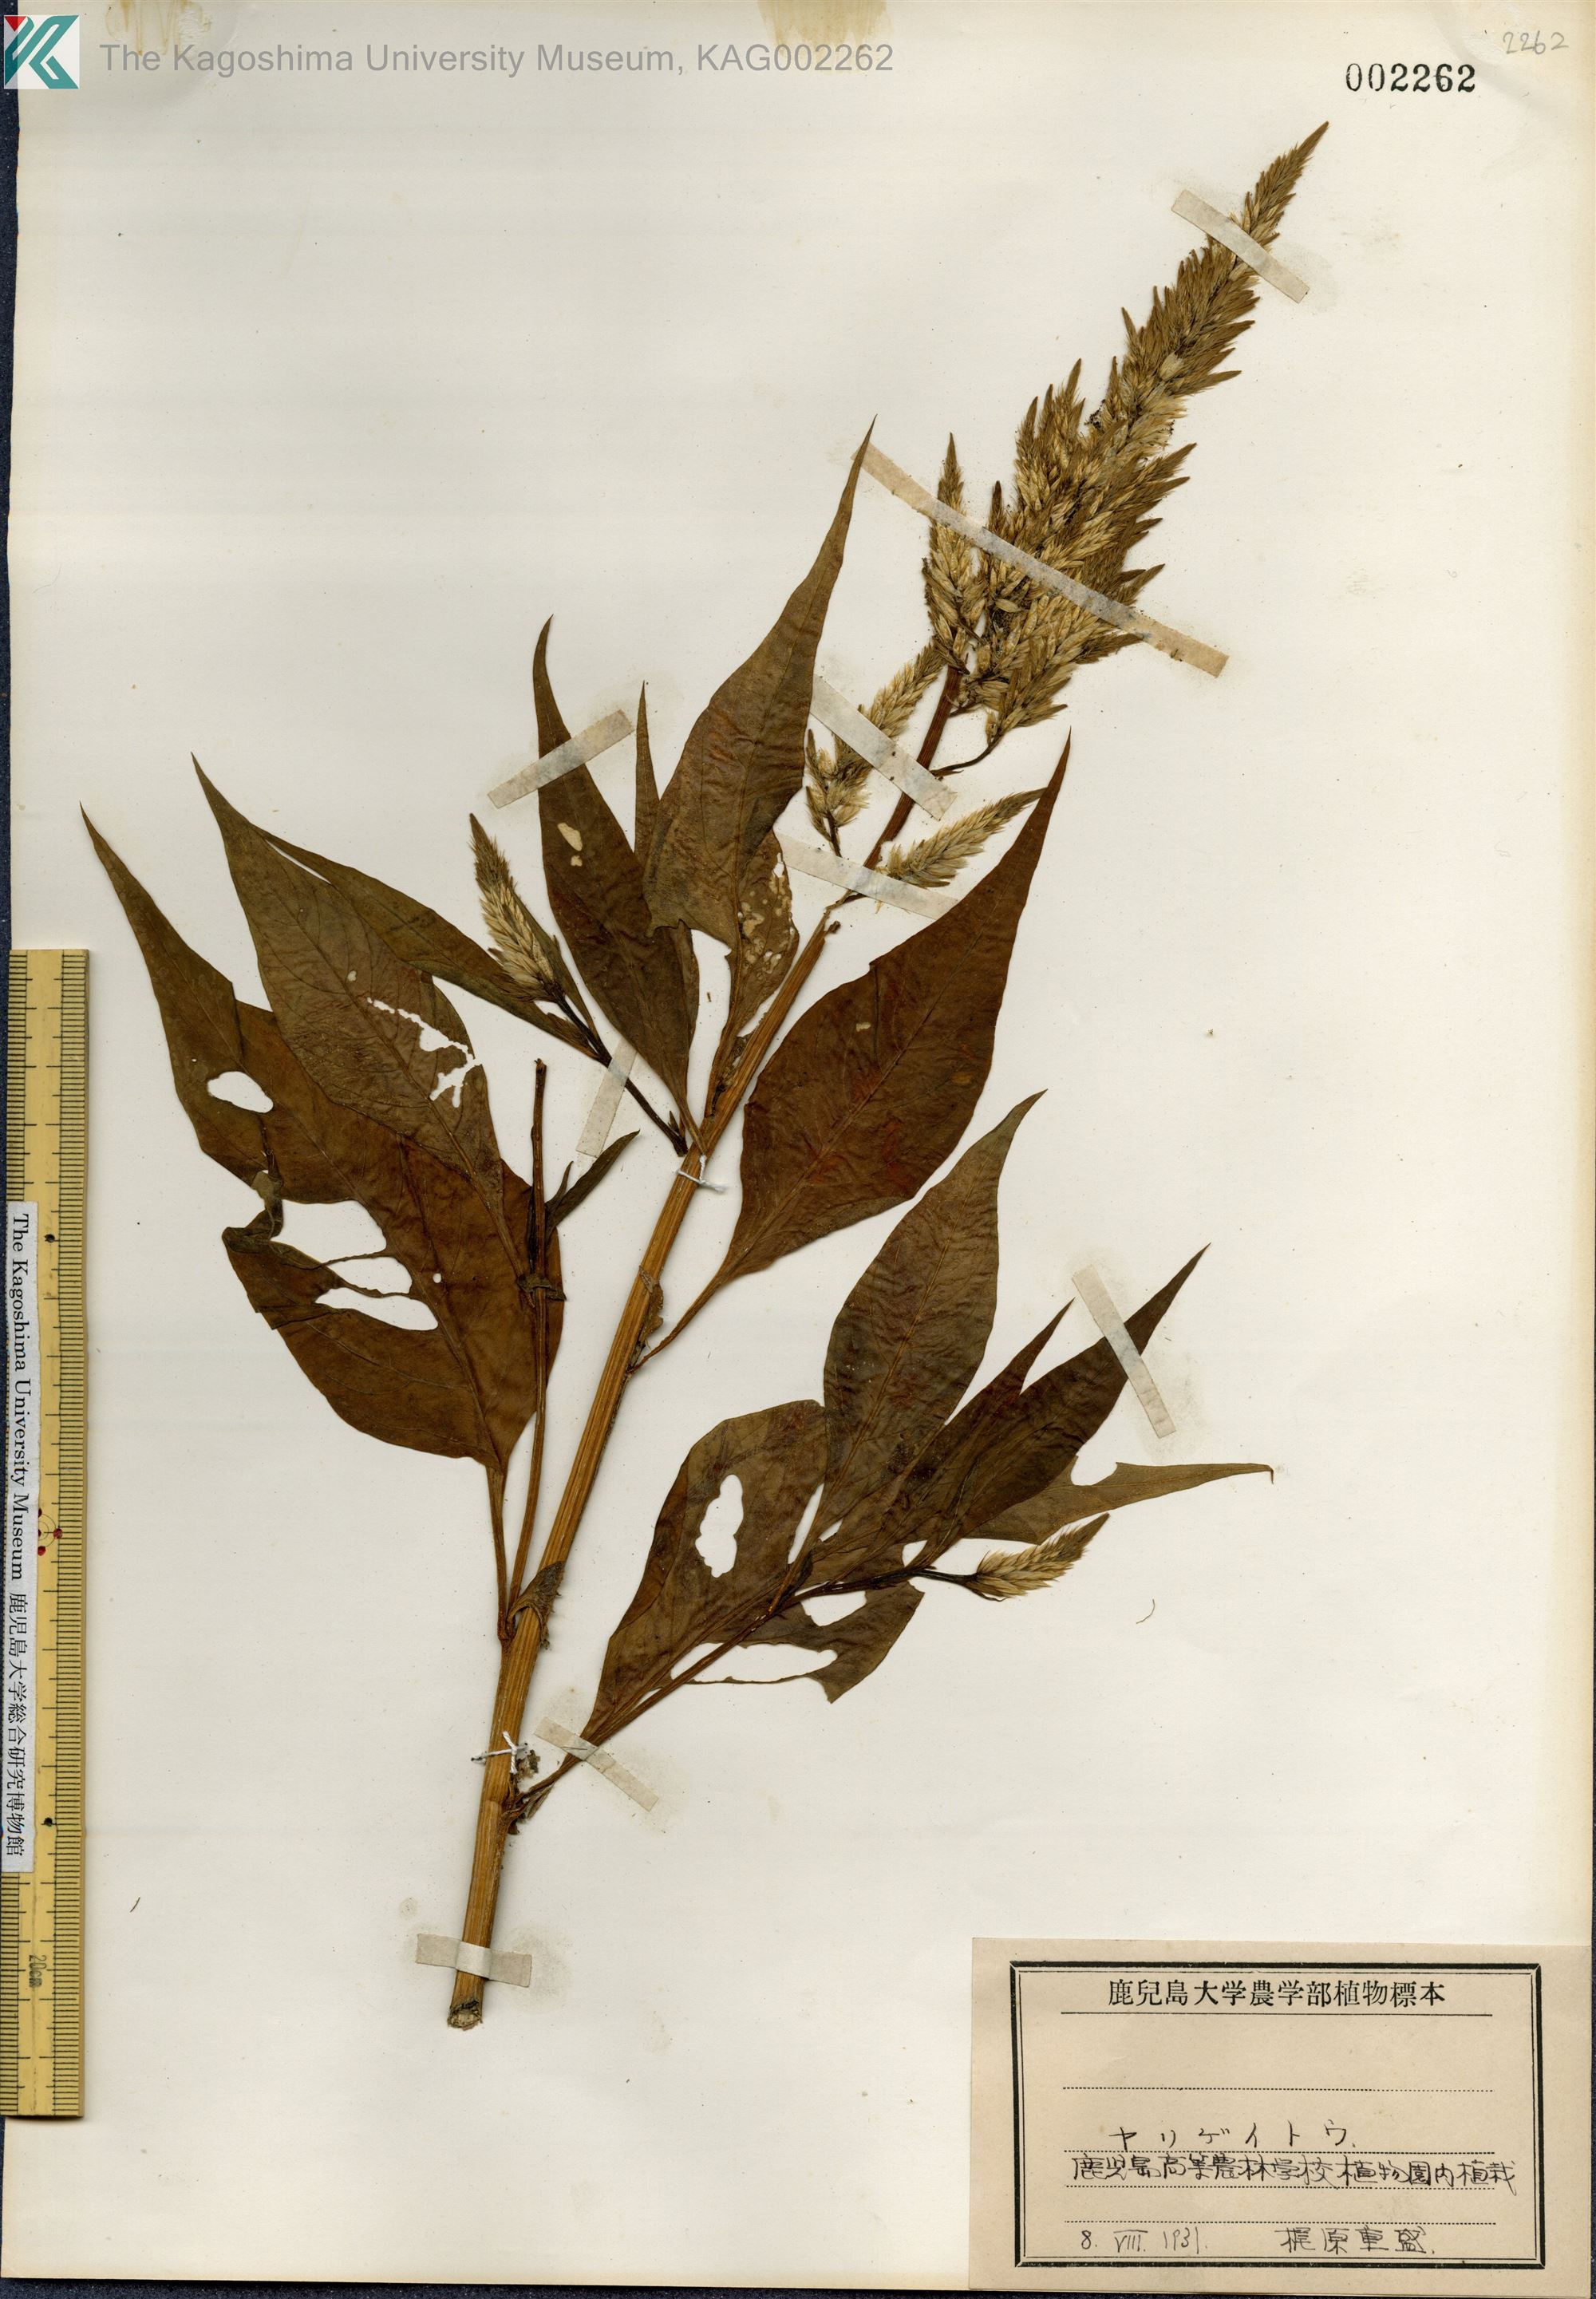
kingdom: Plantae
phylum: Tracheophyta
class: Magnoliopsida
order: Caryophyllales
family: Amaranthaceae
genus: Celosia
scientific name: Celosia argentea
